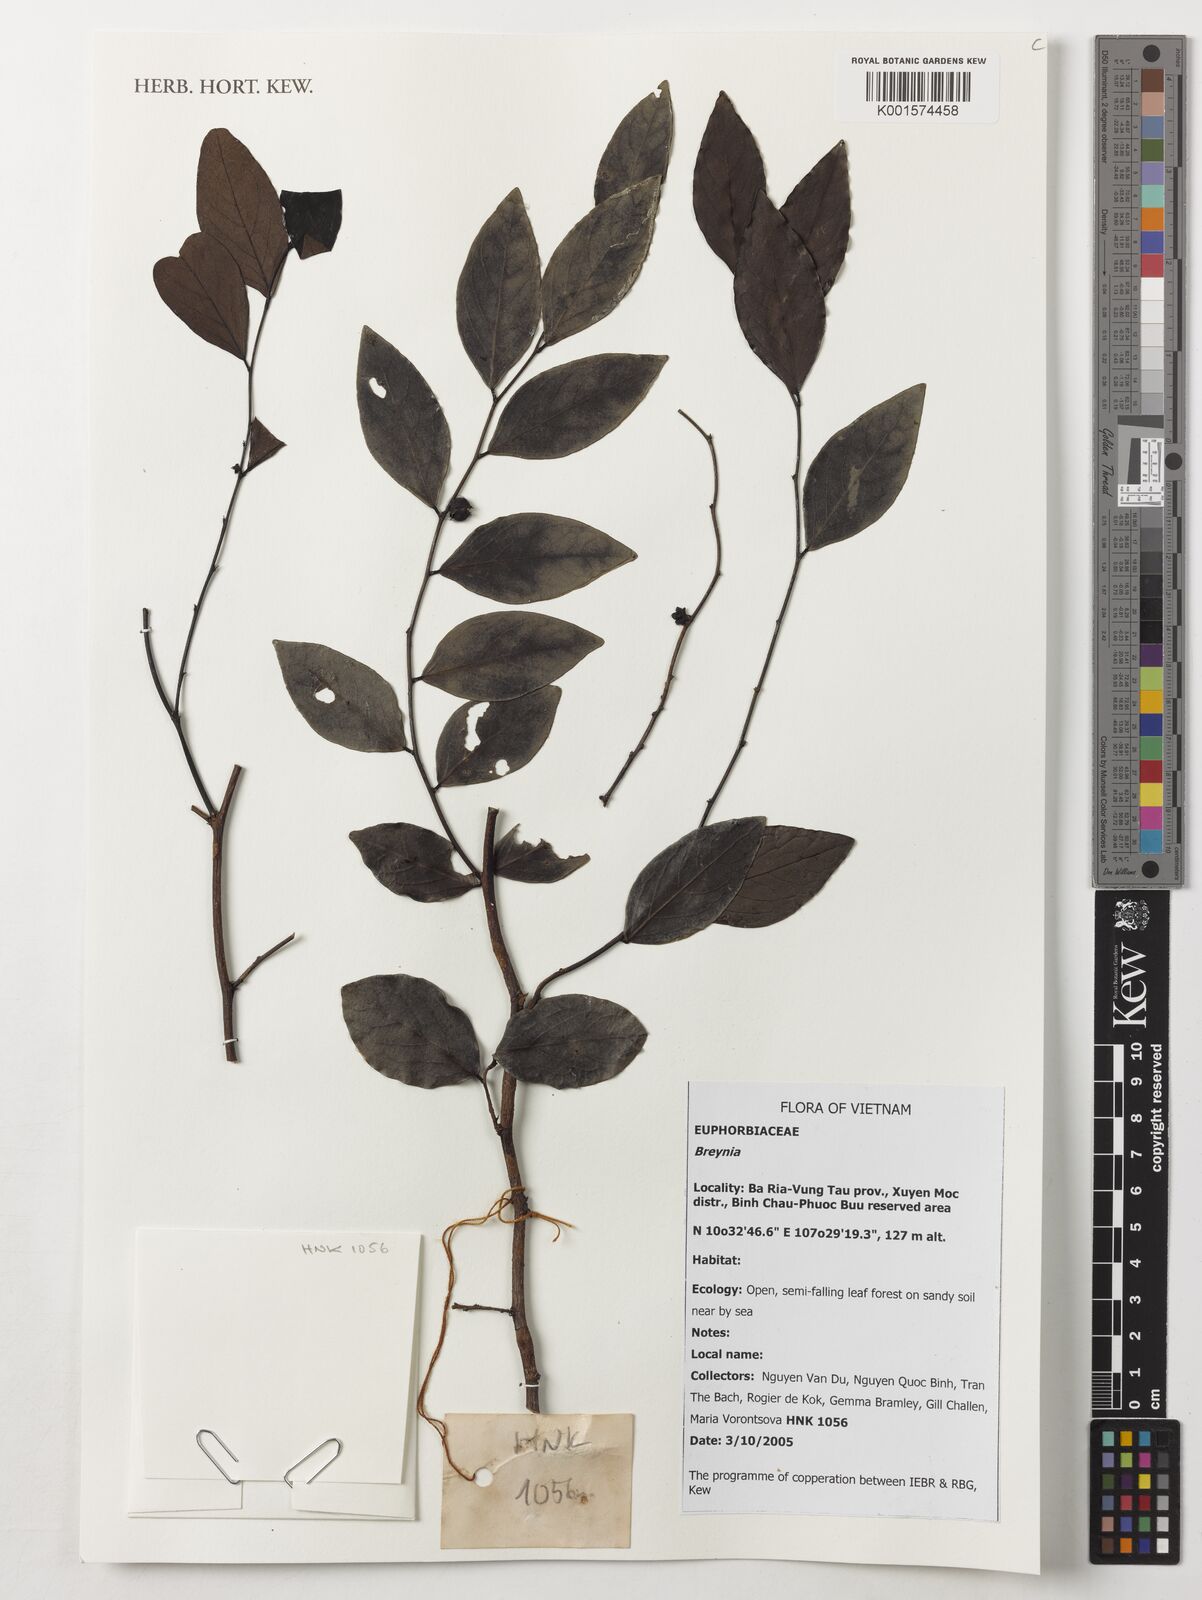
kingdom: Plantae
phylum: Tracheophyta
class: Magnoliopsida
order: Malpighiales
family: Phyllanthaceae
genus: Breynia
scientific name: Breynia spec
